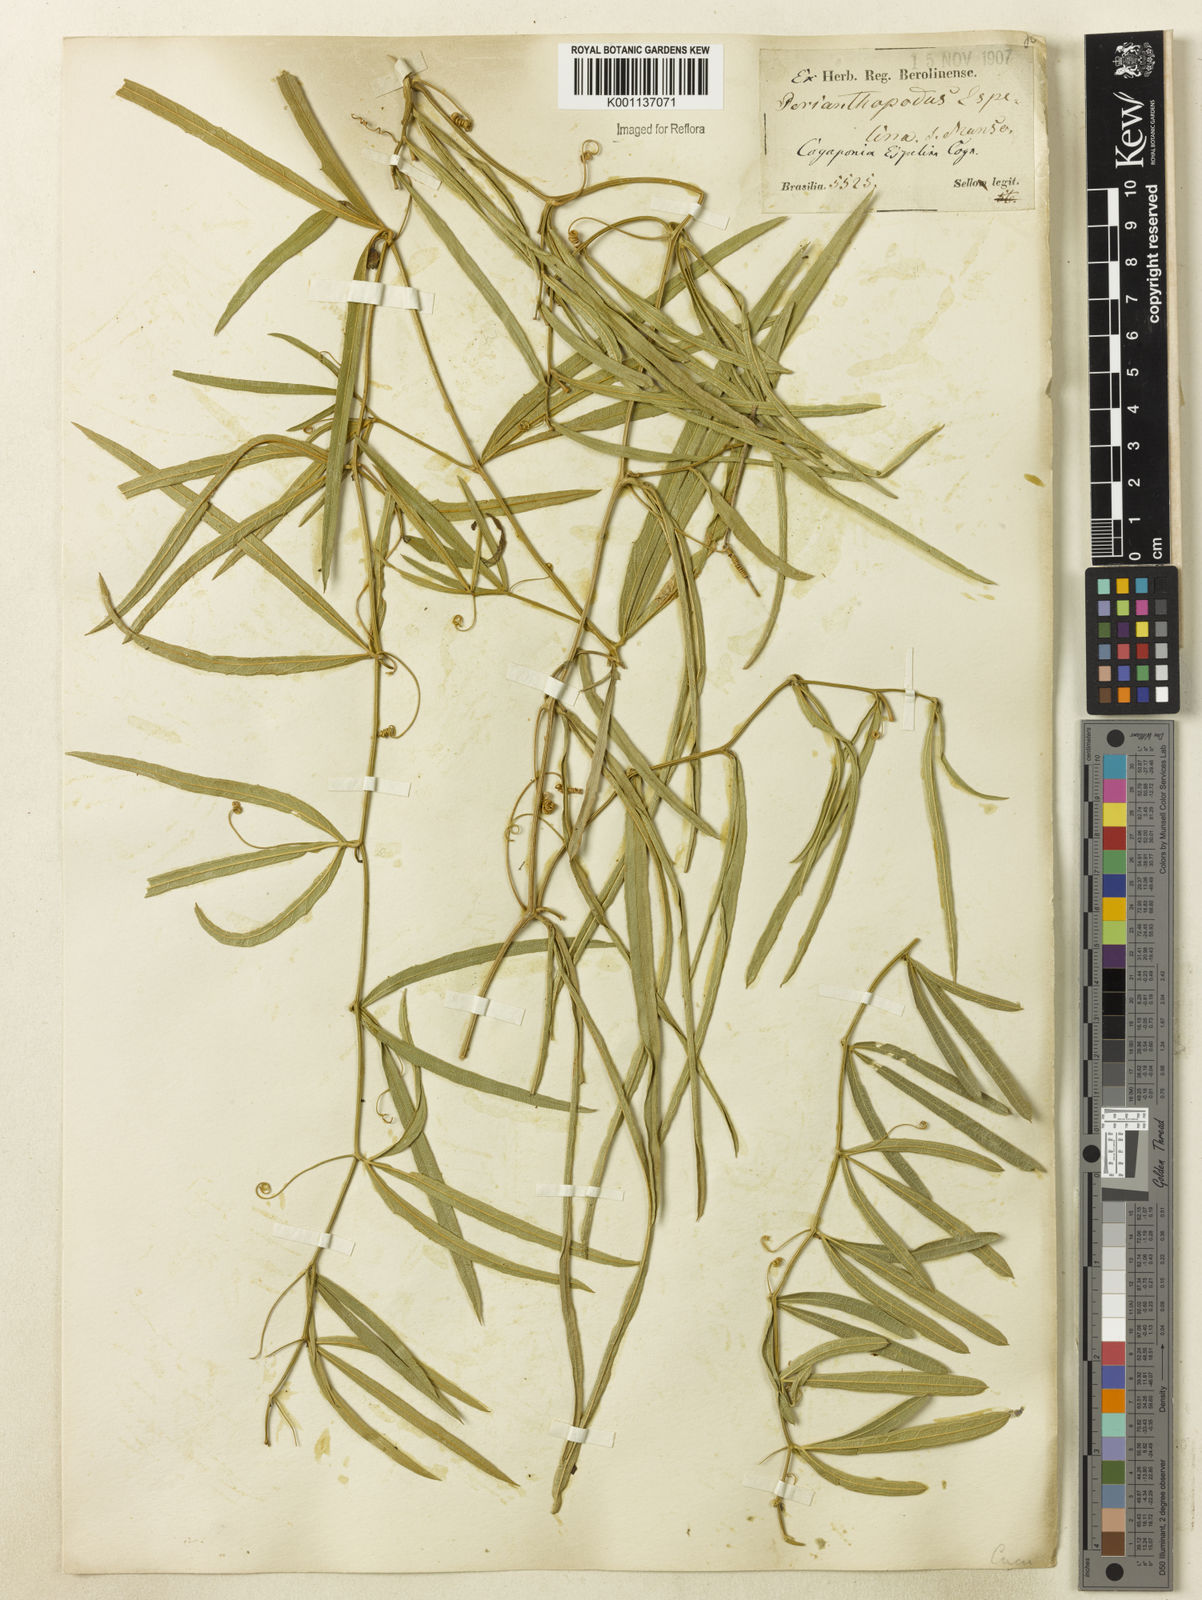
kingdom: Plantae
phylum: Tracheophyta
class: Magnoliopsida
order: Cucurbitales
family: Cucurbitaceae
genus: Cayaponia
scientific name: Cayaponia espelina
